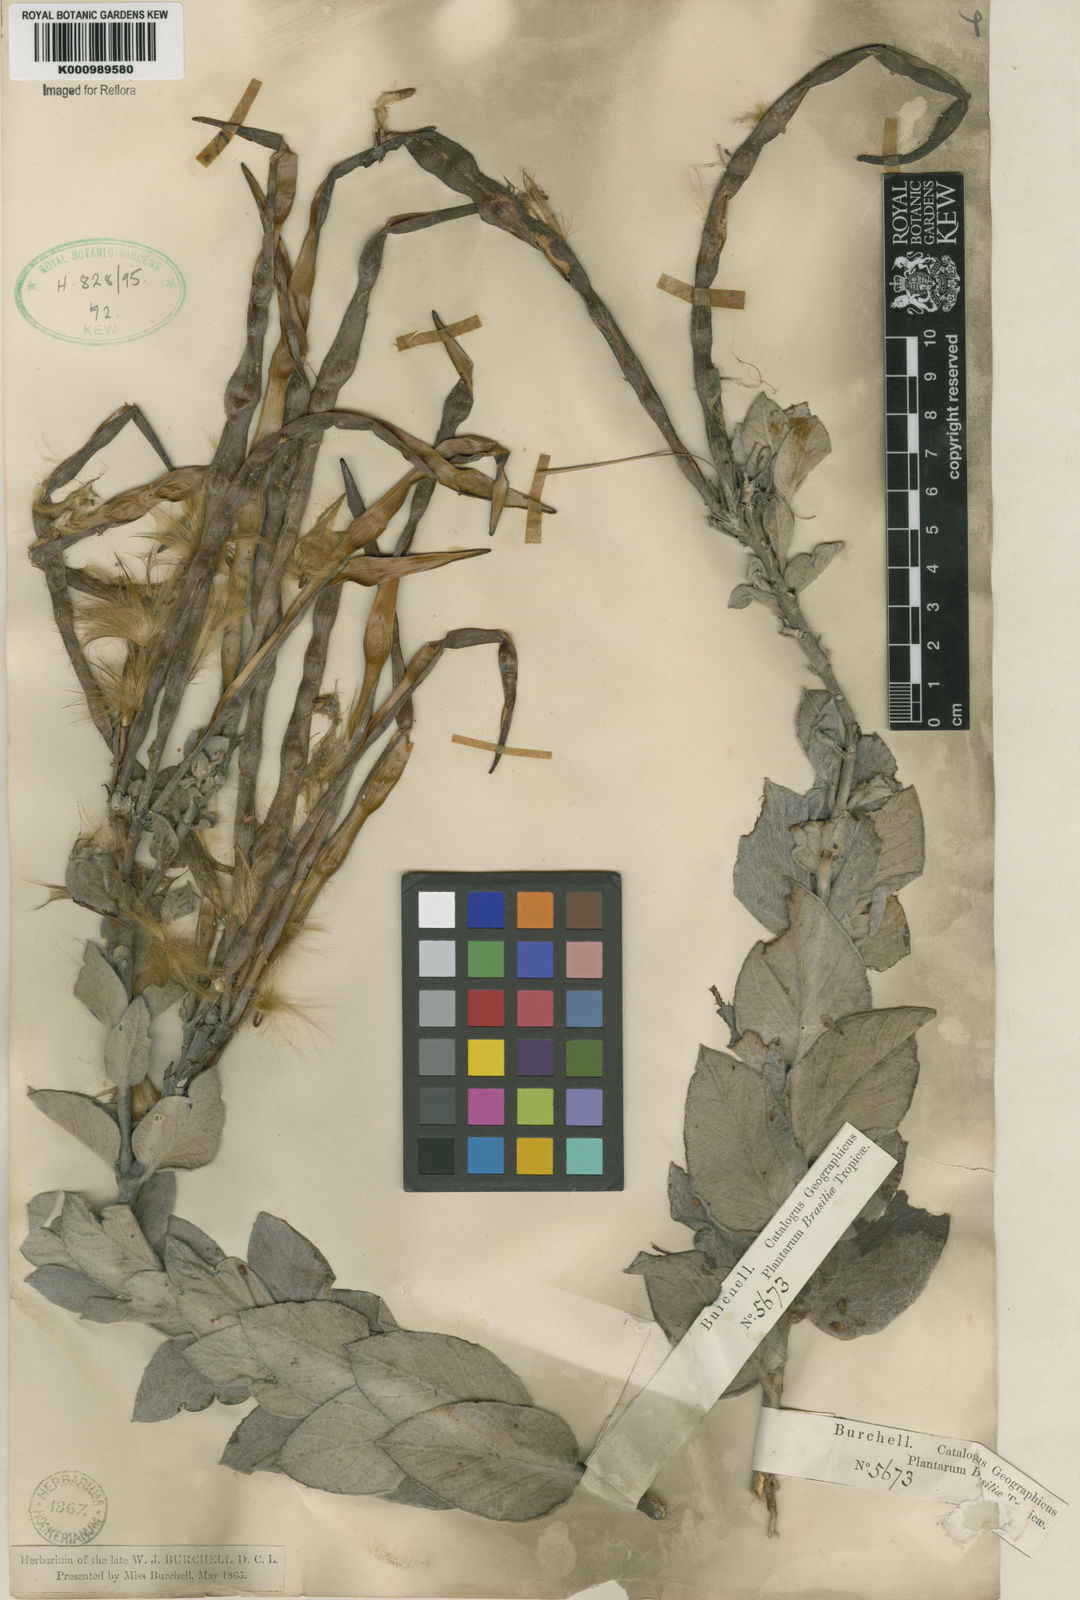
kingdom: Plantae
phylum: Tracheophyta
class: Magnoliopsida
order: Gentianales
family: Apocynaceae
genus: Mandevilla
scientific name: Mandevilla velame
